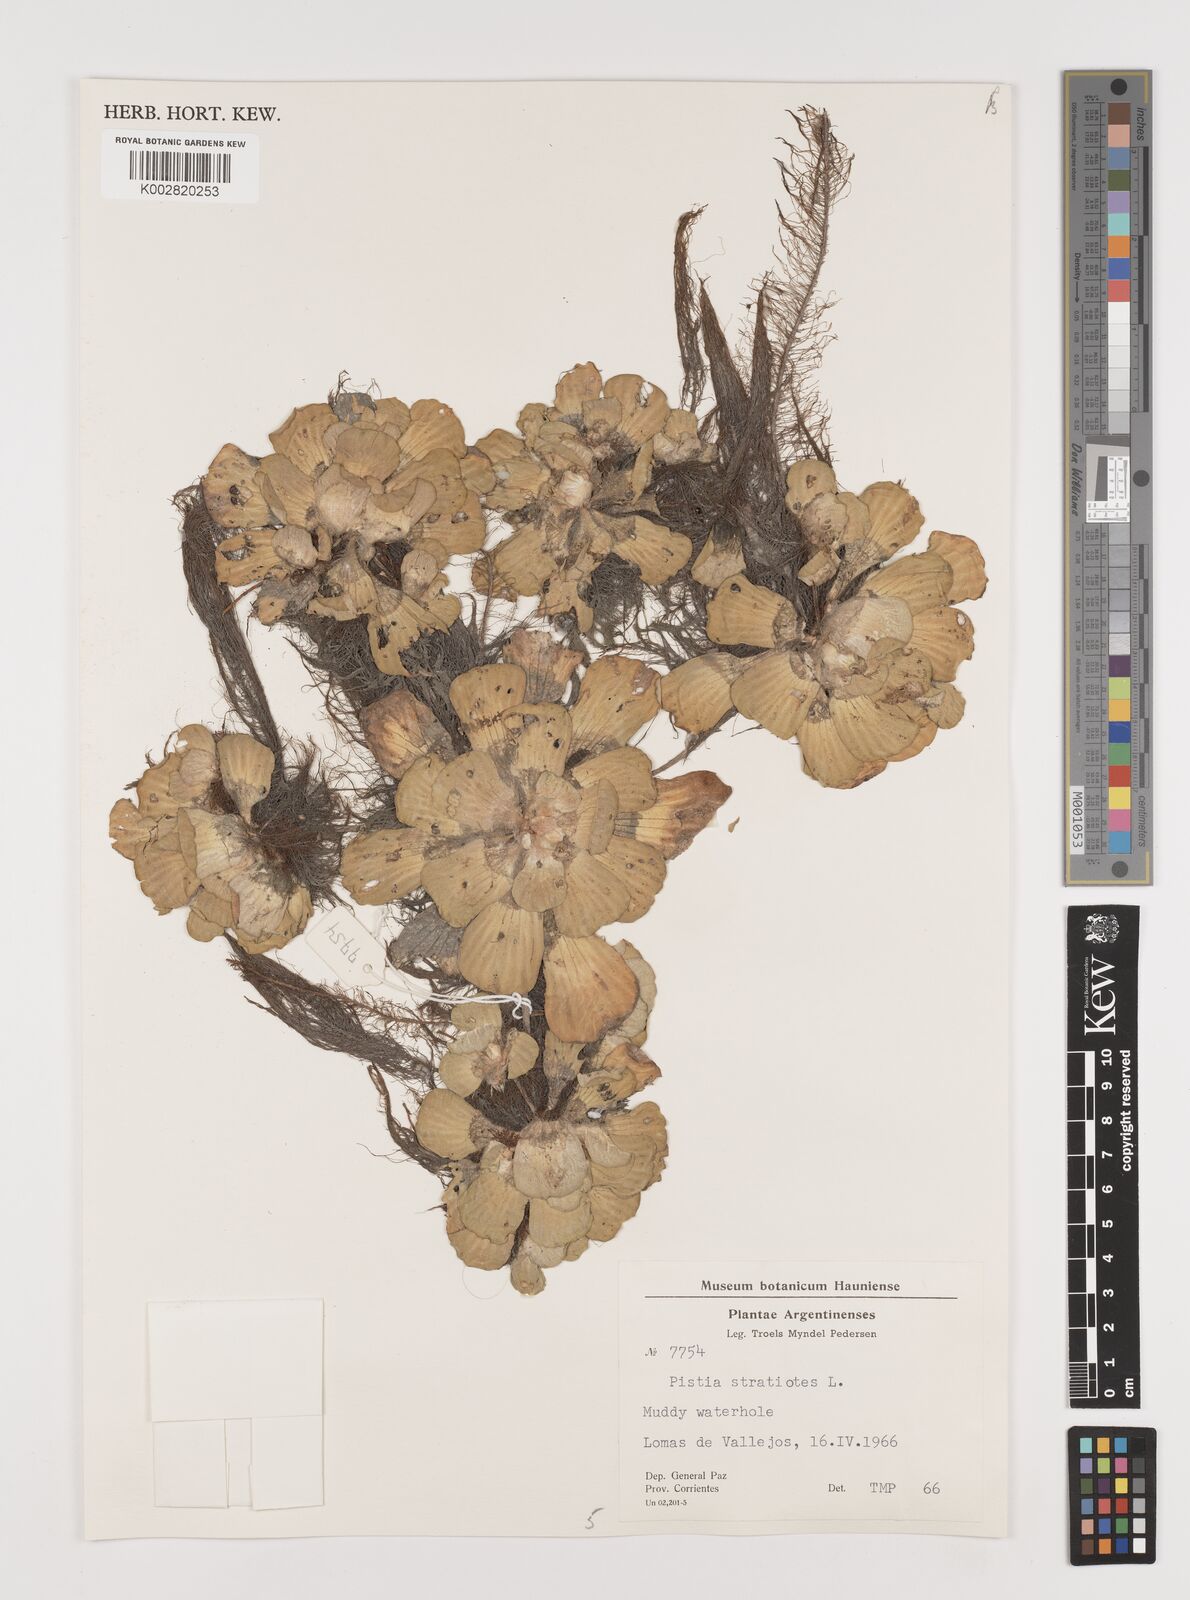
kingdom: Plantae
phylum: Tracheophyta
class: Liliopsida
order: Alismatales
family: Araceae
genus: Pistia
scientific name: Pistia stratiotes
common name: Water lettuce
